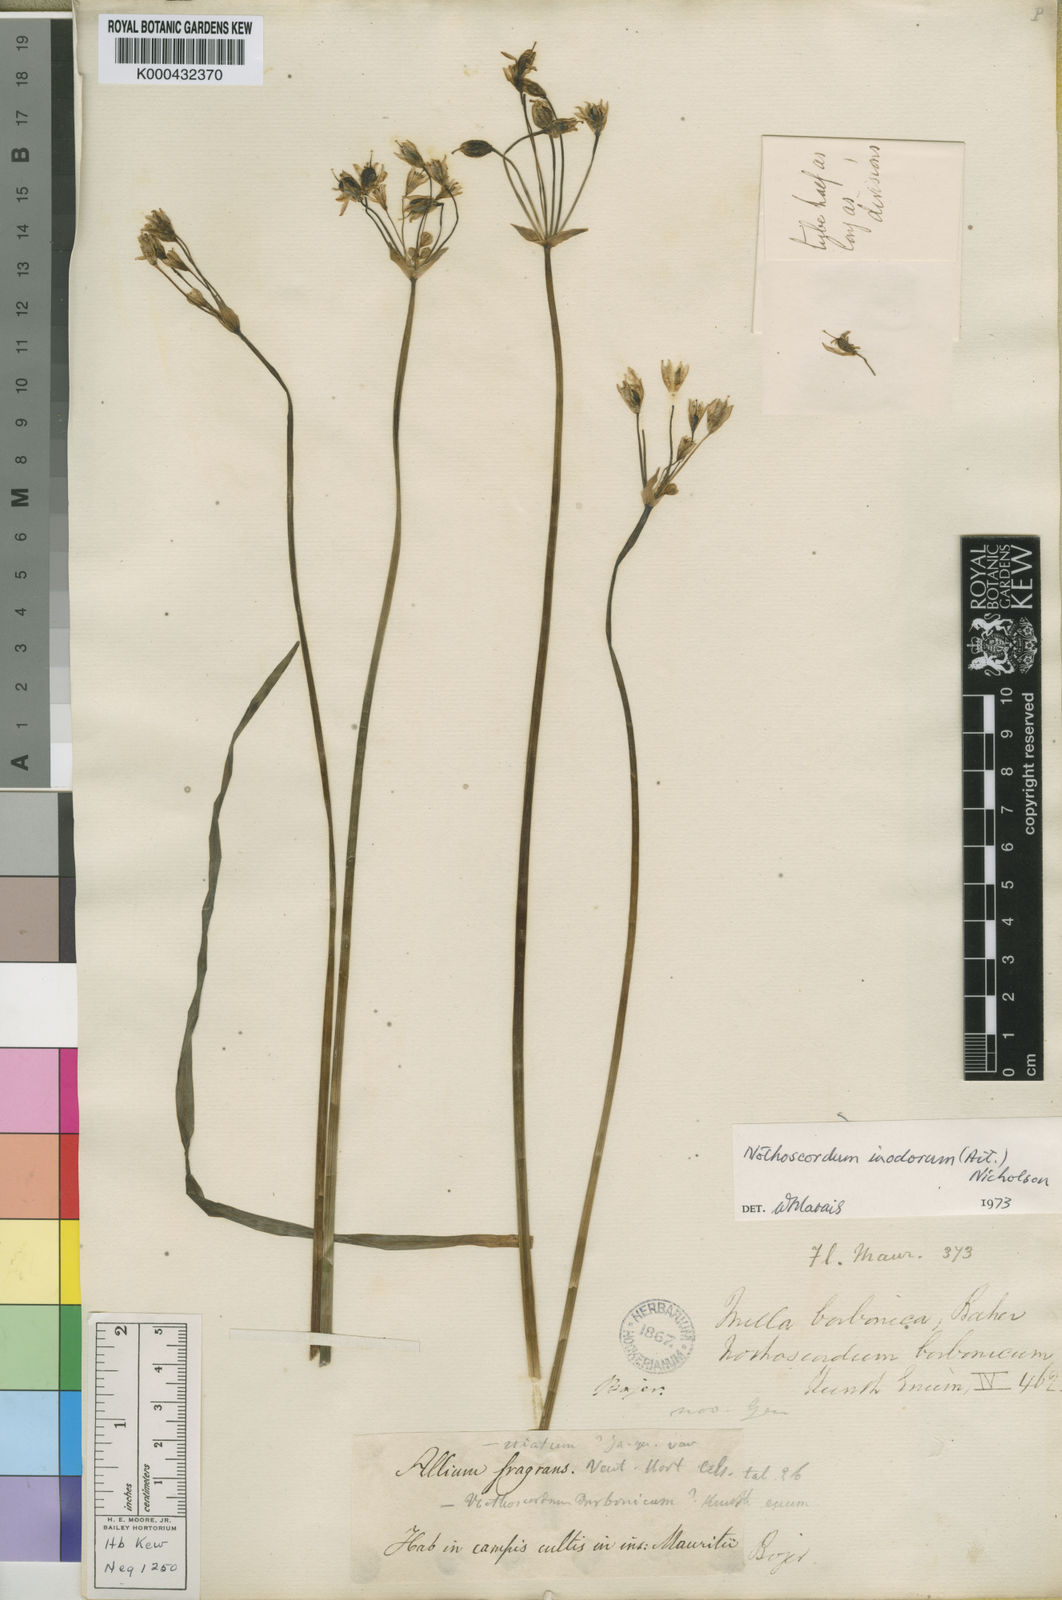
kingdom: Plantae
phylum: Tracheophyta
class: Liliopsida
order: Asparagales
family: Amaryllidaceae
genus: Allium
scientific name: Allium neapolitanum
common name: Neapolitan garlic
